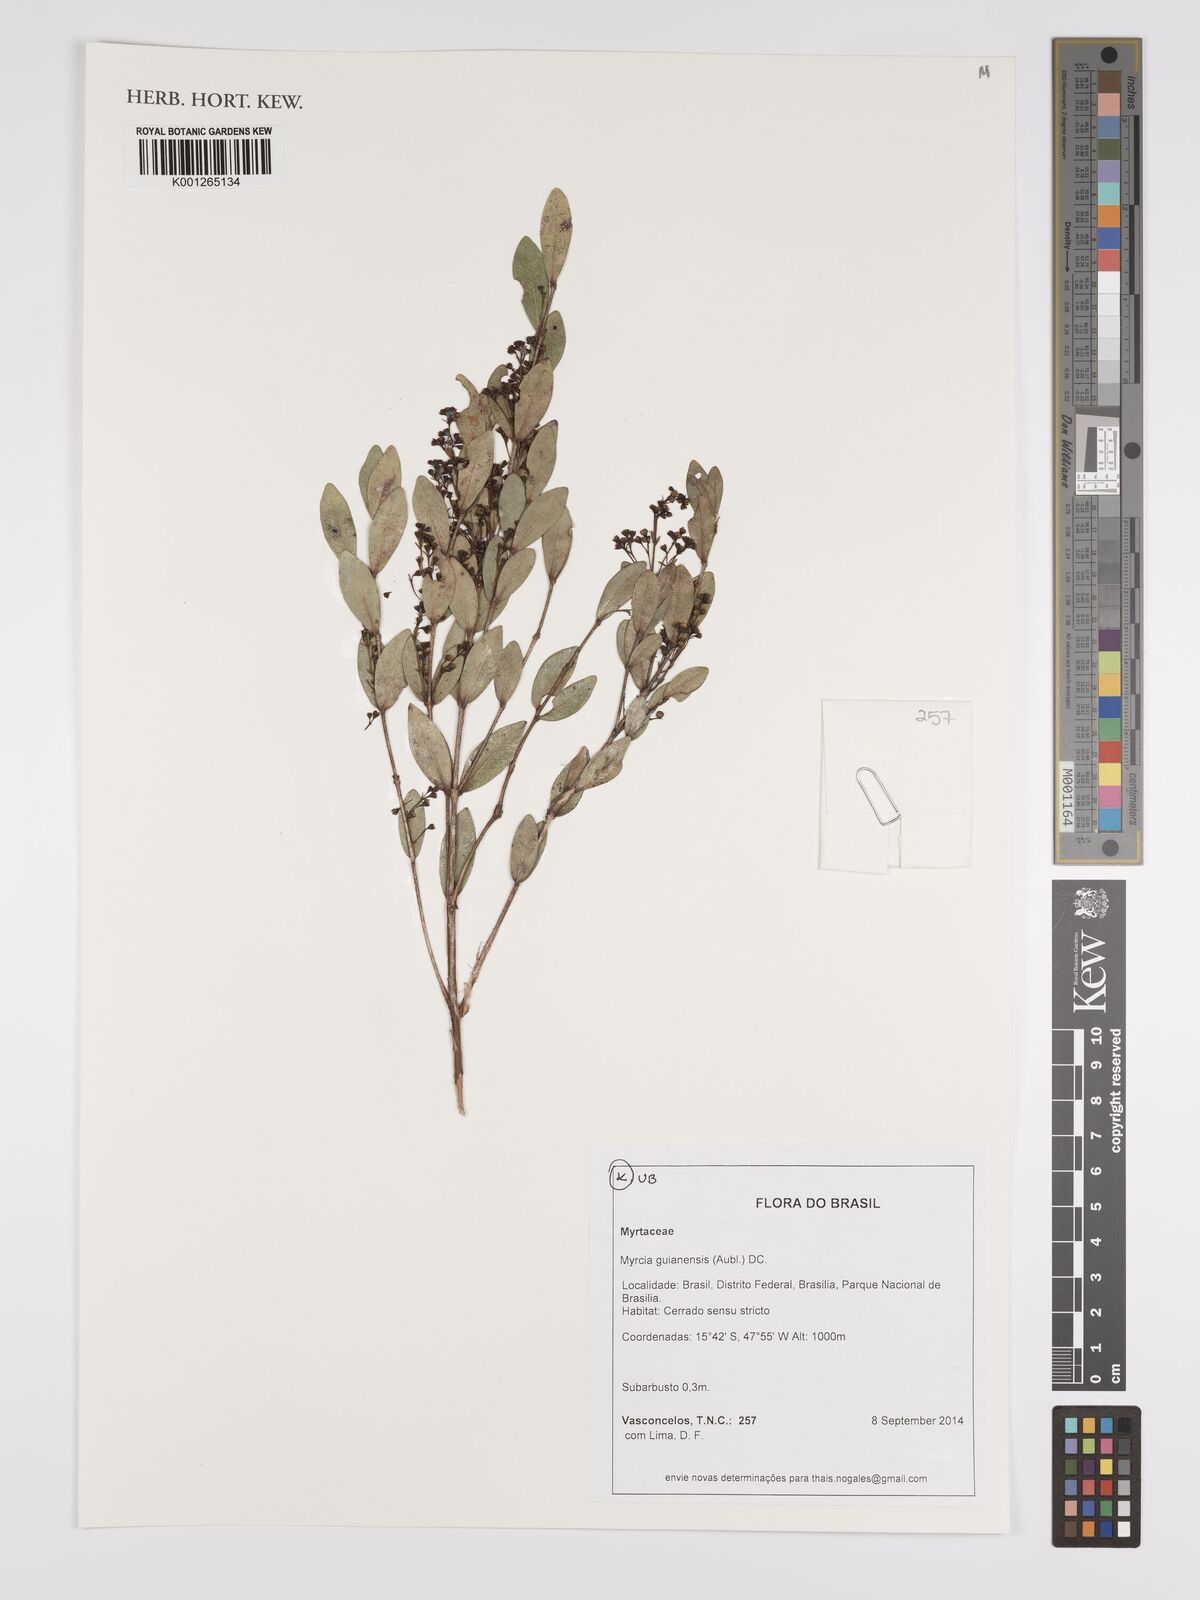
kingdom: Plantae
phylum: Tracheophyta
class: Magnoliopsida
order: Myrtales
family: Myrtaceae
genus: Myrcia
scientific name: Myrcia guianensis
